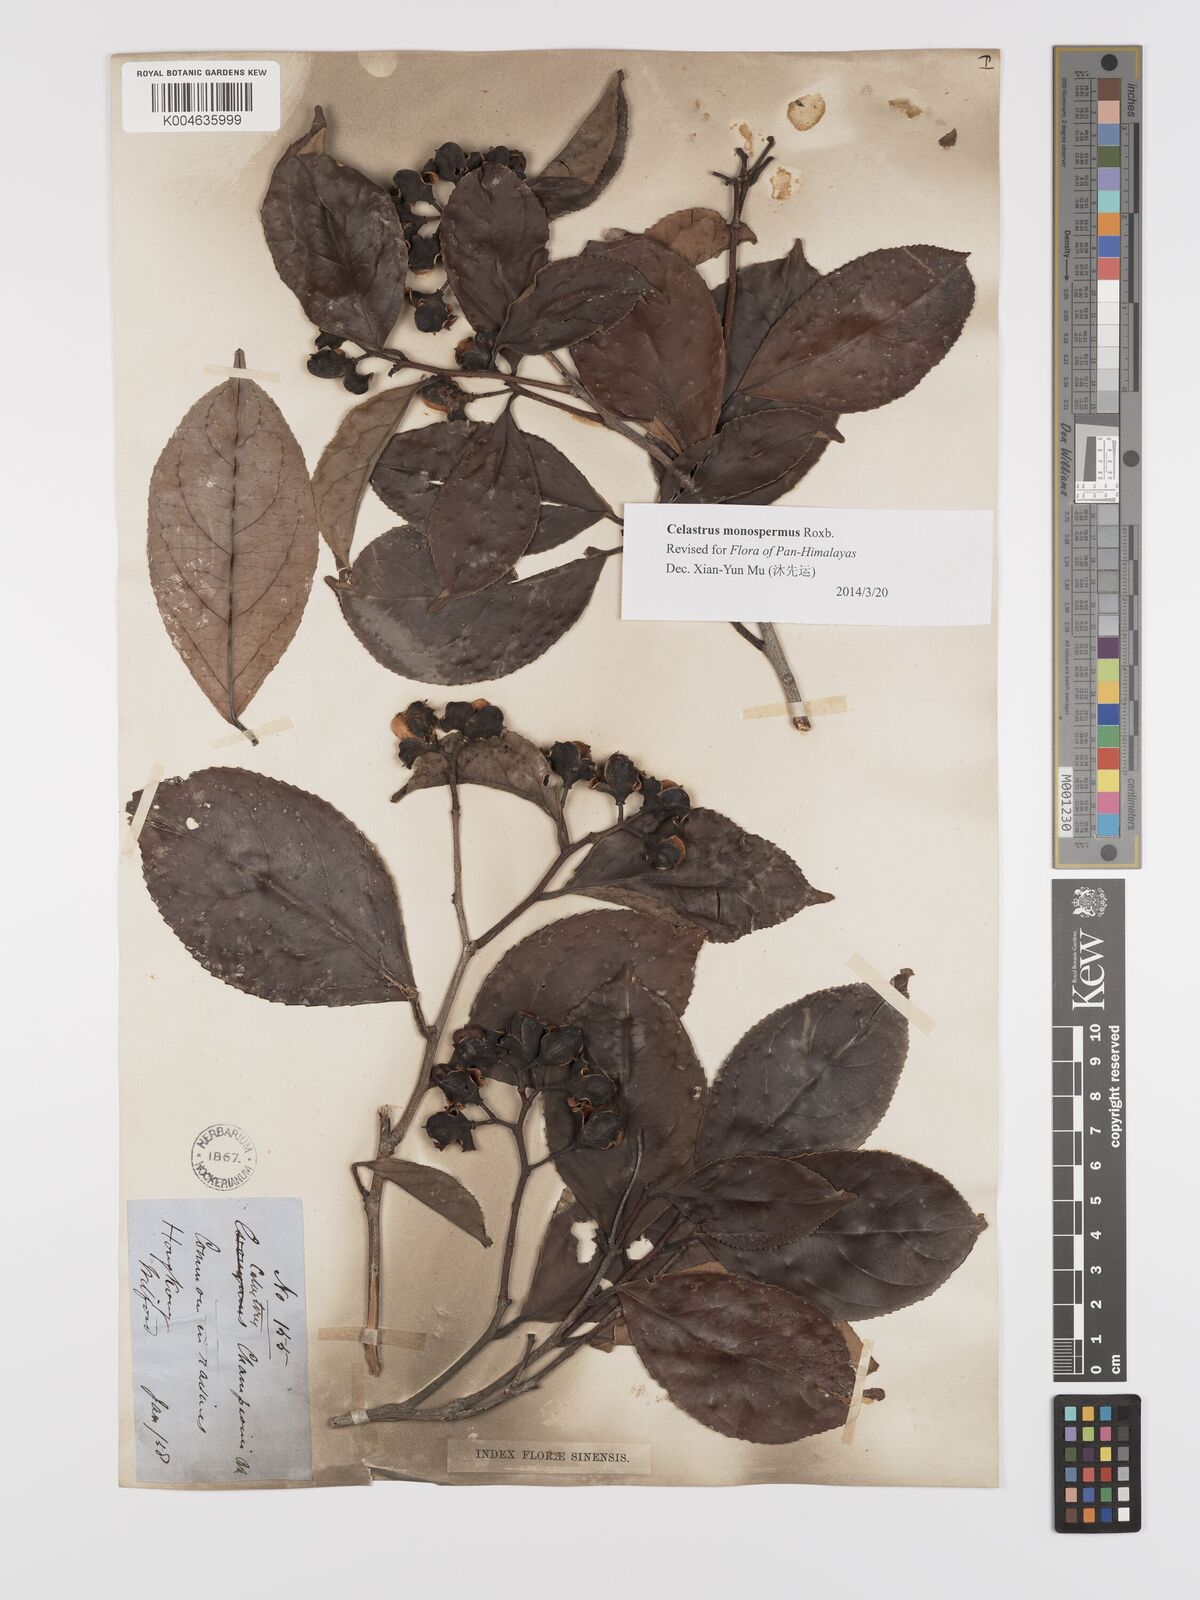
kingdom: Plantae
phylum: Tracheophyta
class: Magnoliopsida
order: Celastrales
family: Celastraceae
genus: Celastrus
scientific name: Celastrus monospermus
